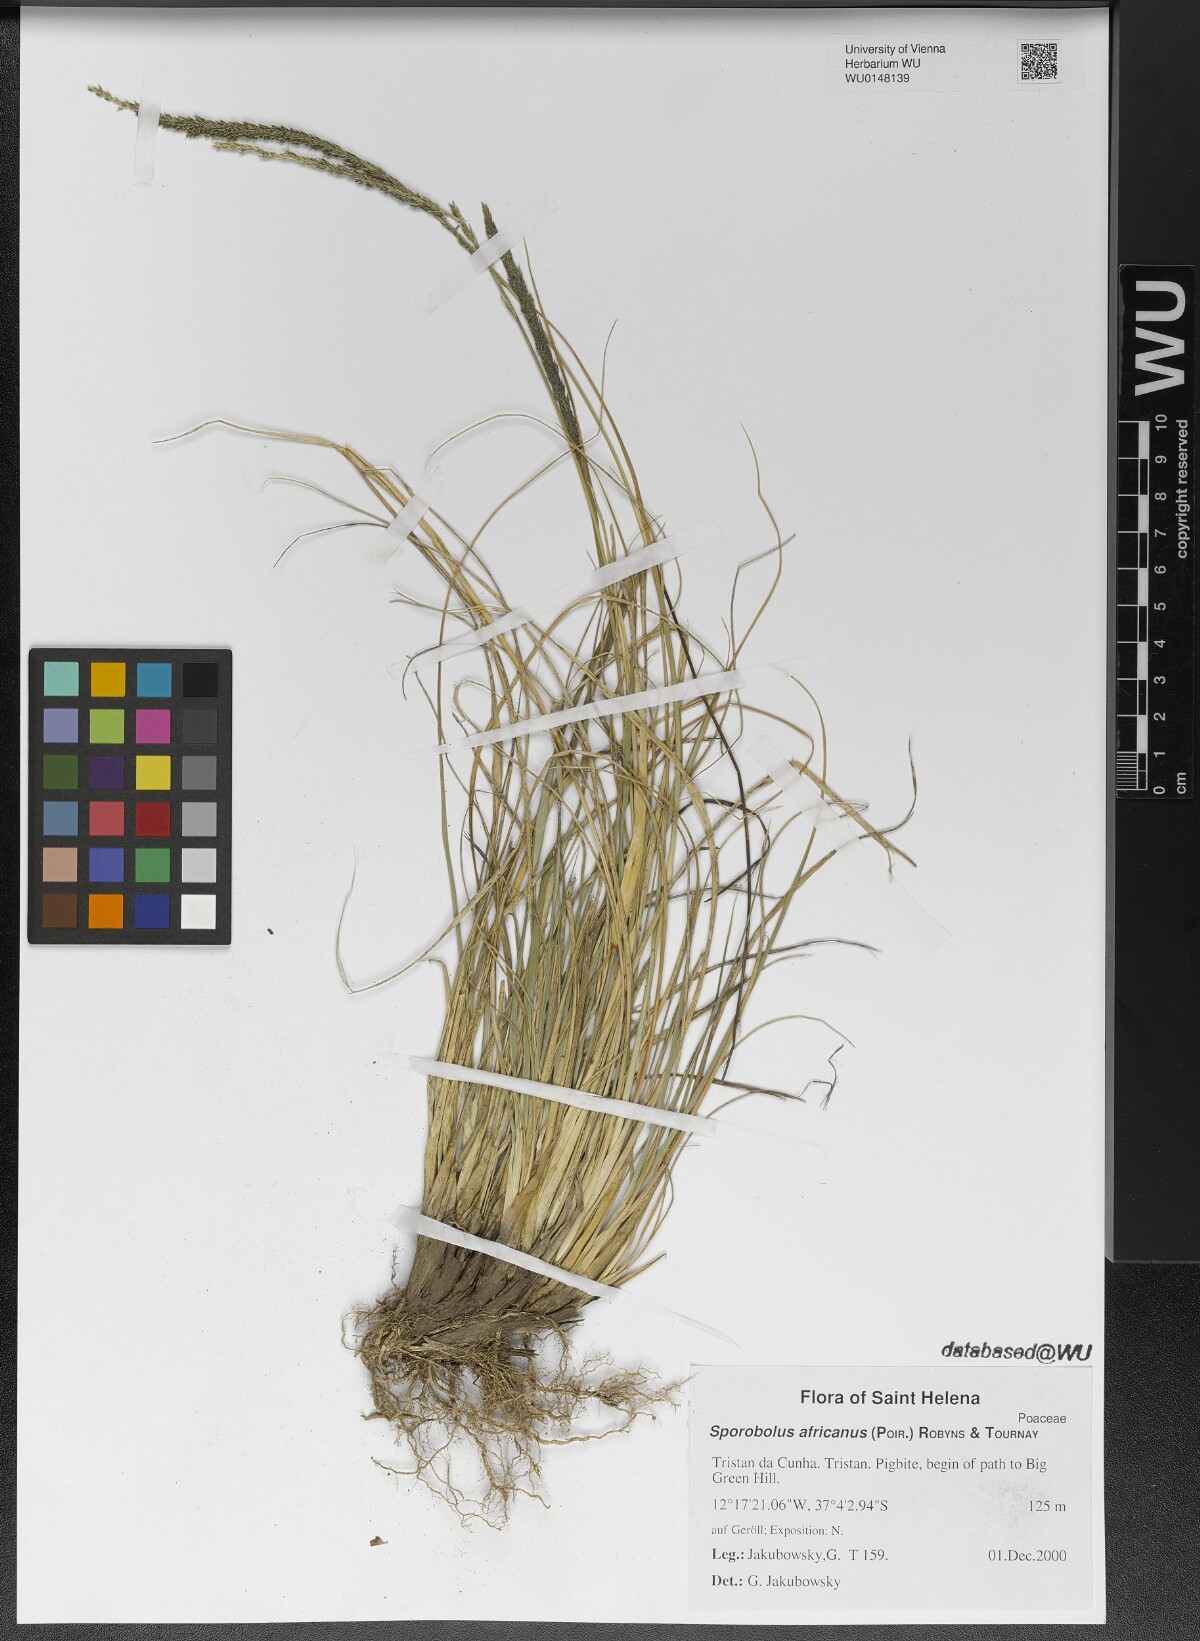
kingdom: Plantae
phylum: Tracheophyta
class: Liliopsida
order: Poales
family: Poaceae
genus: Sporobolus
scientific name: Sporobolus africanus
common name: African dropseed
